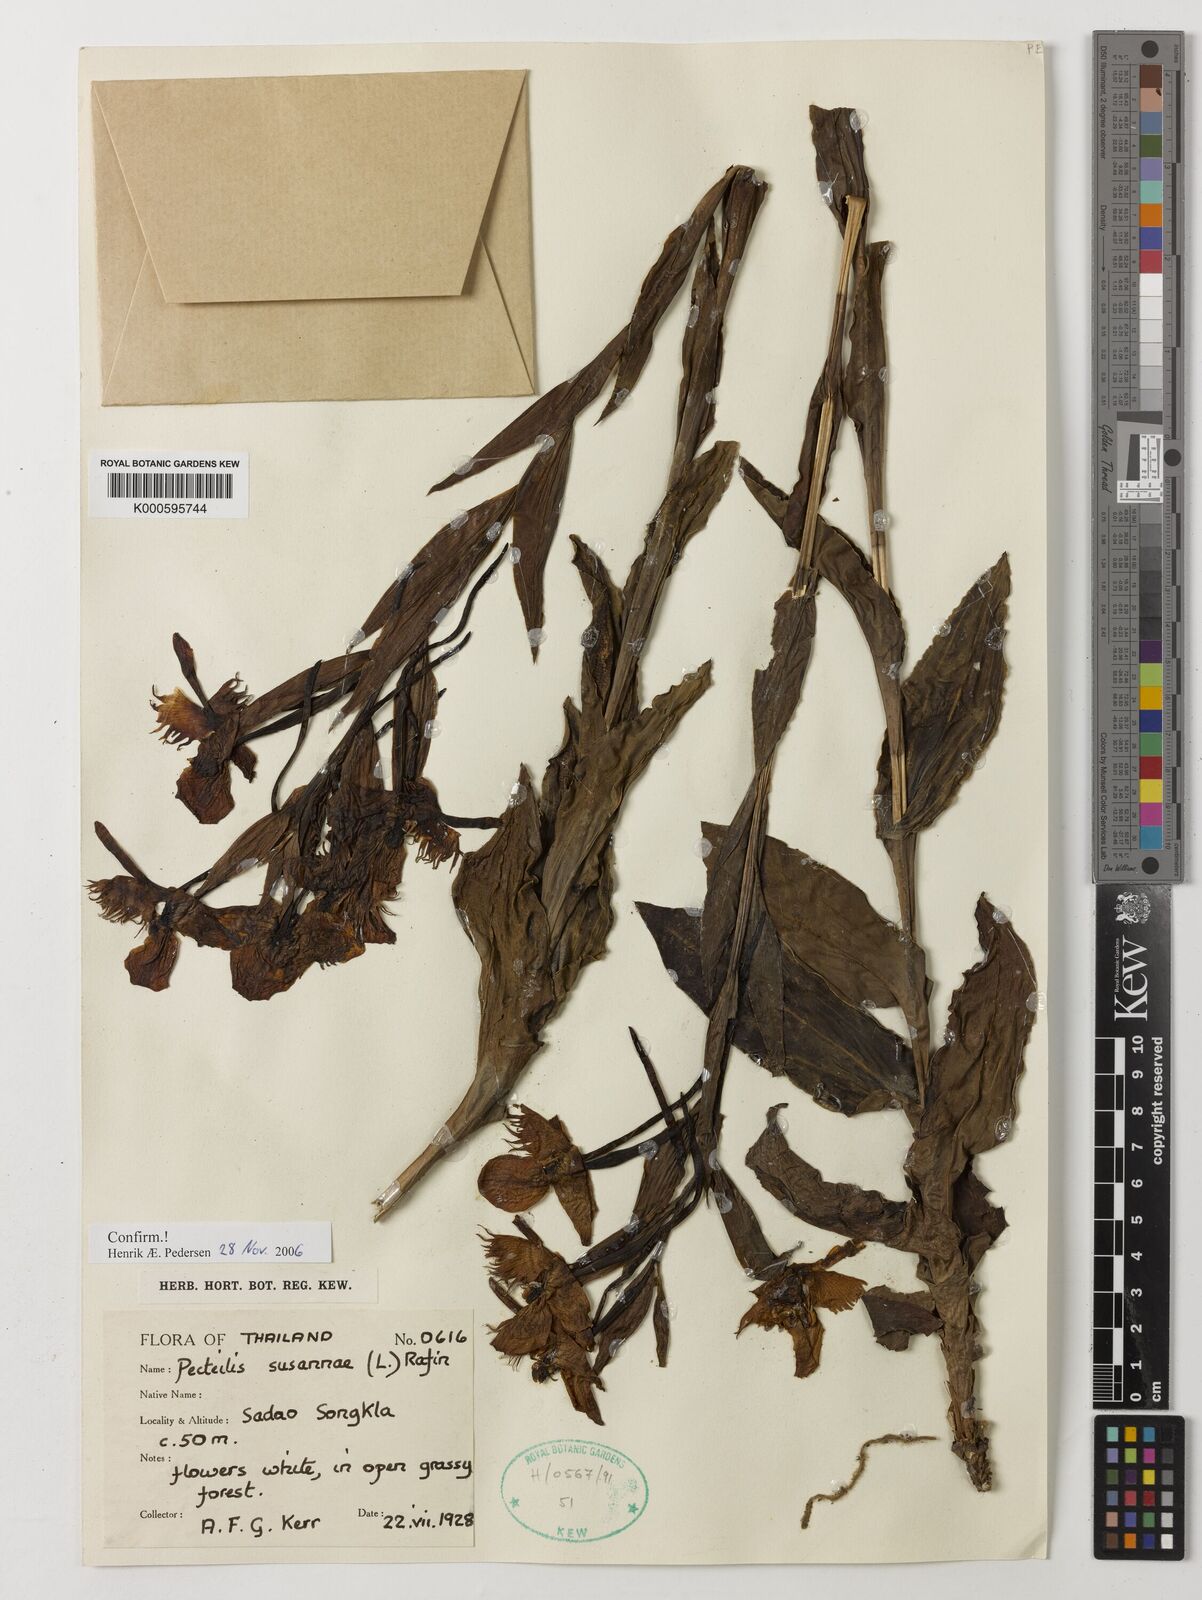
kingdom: Plantae
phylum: Tracheophyta
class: Liliopsida
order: Asparagales
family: Orchidaceae
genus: Pecteilis
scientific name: Pecteilis susannae
